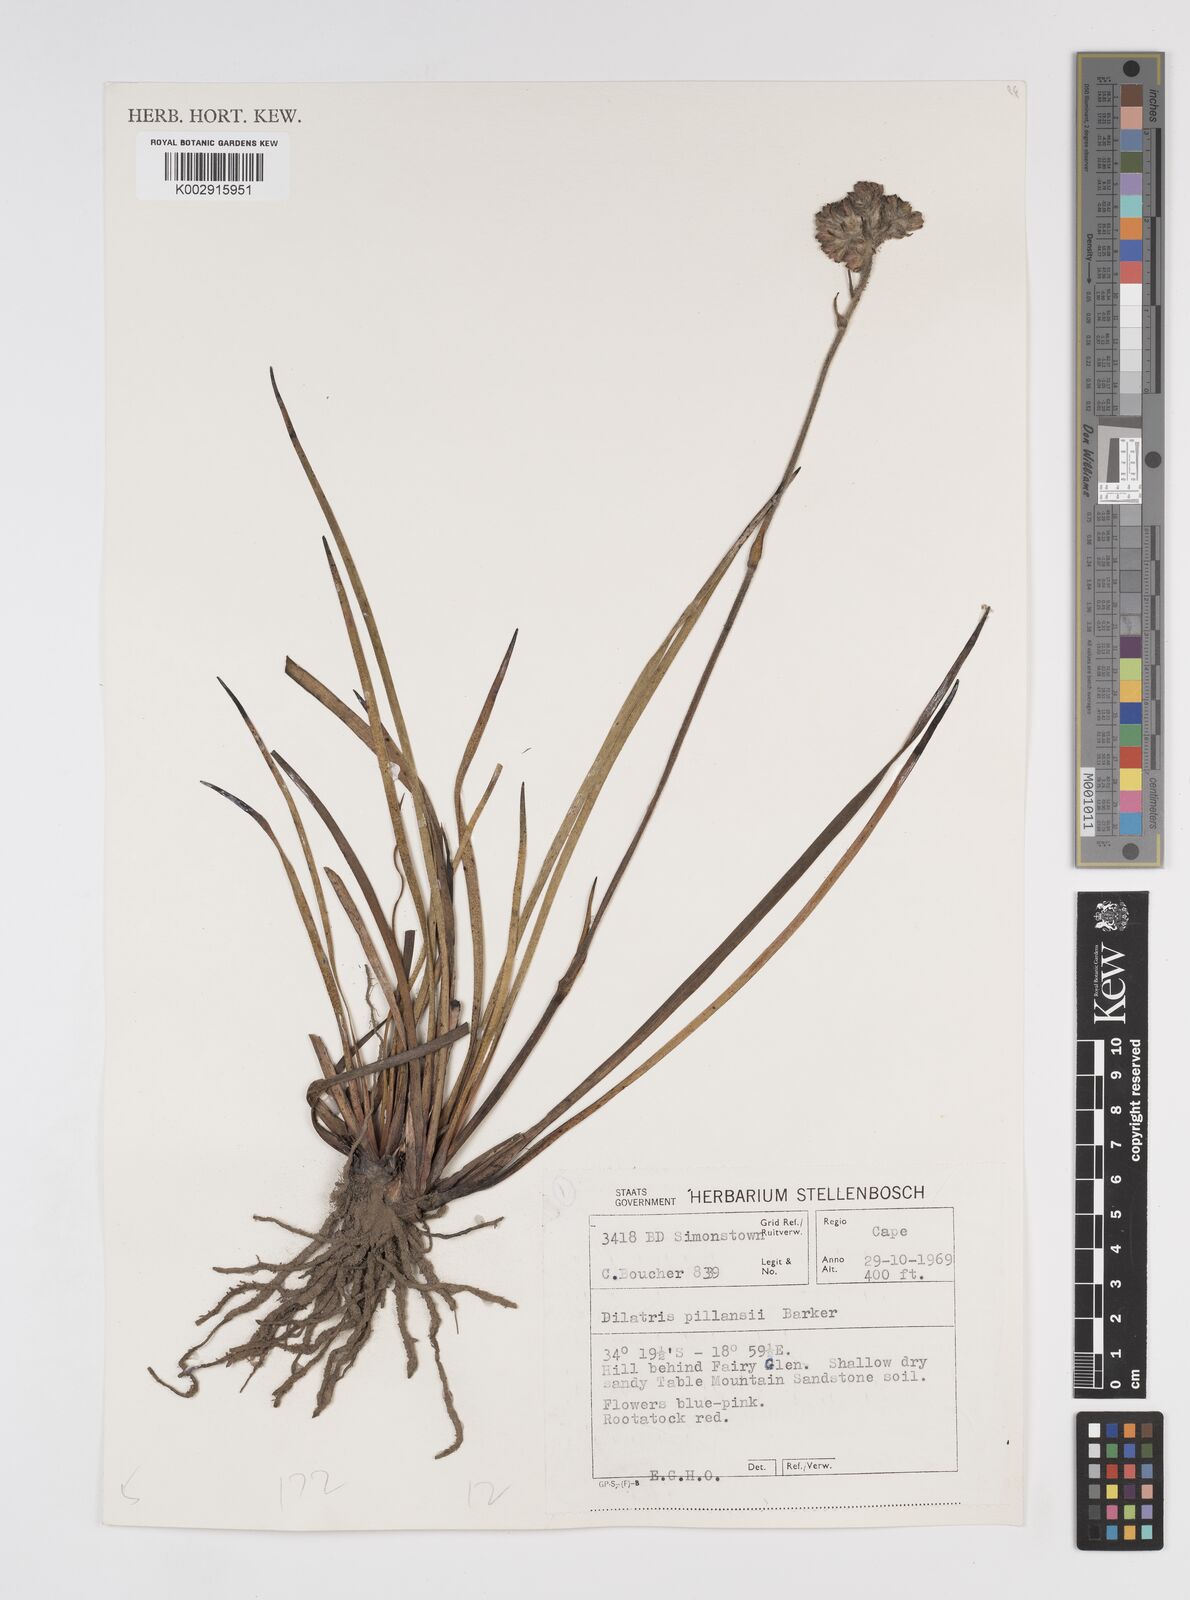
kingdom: Plantae
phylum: Tracheophyta
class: Liliopsida
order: Commelinales
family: Haemodoraceae
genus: Dilatris
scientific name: Dilatris pillansii
